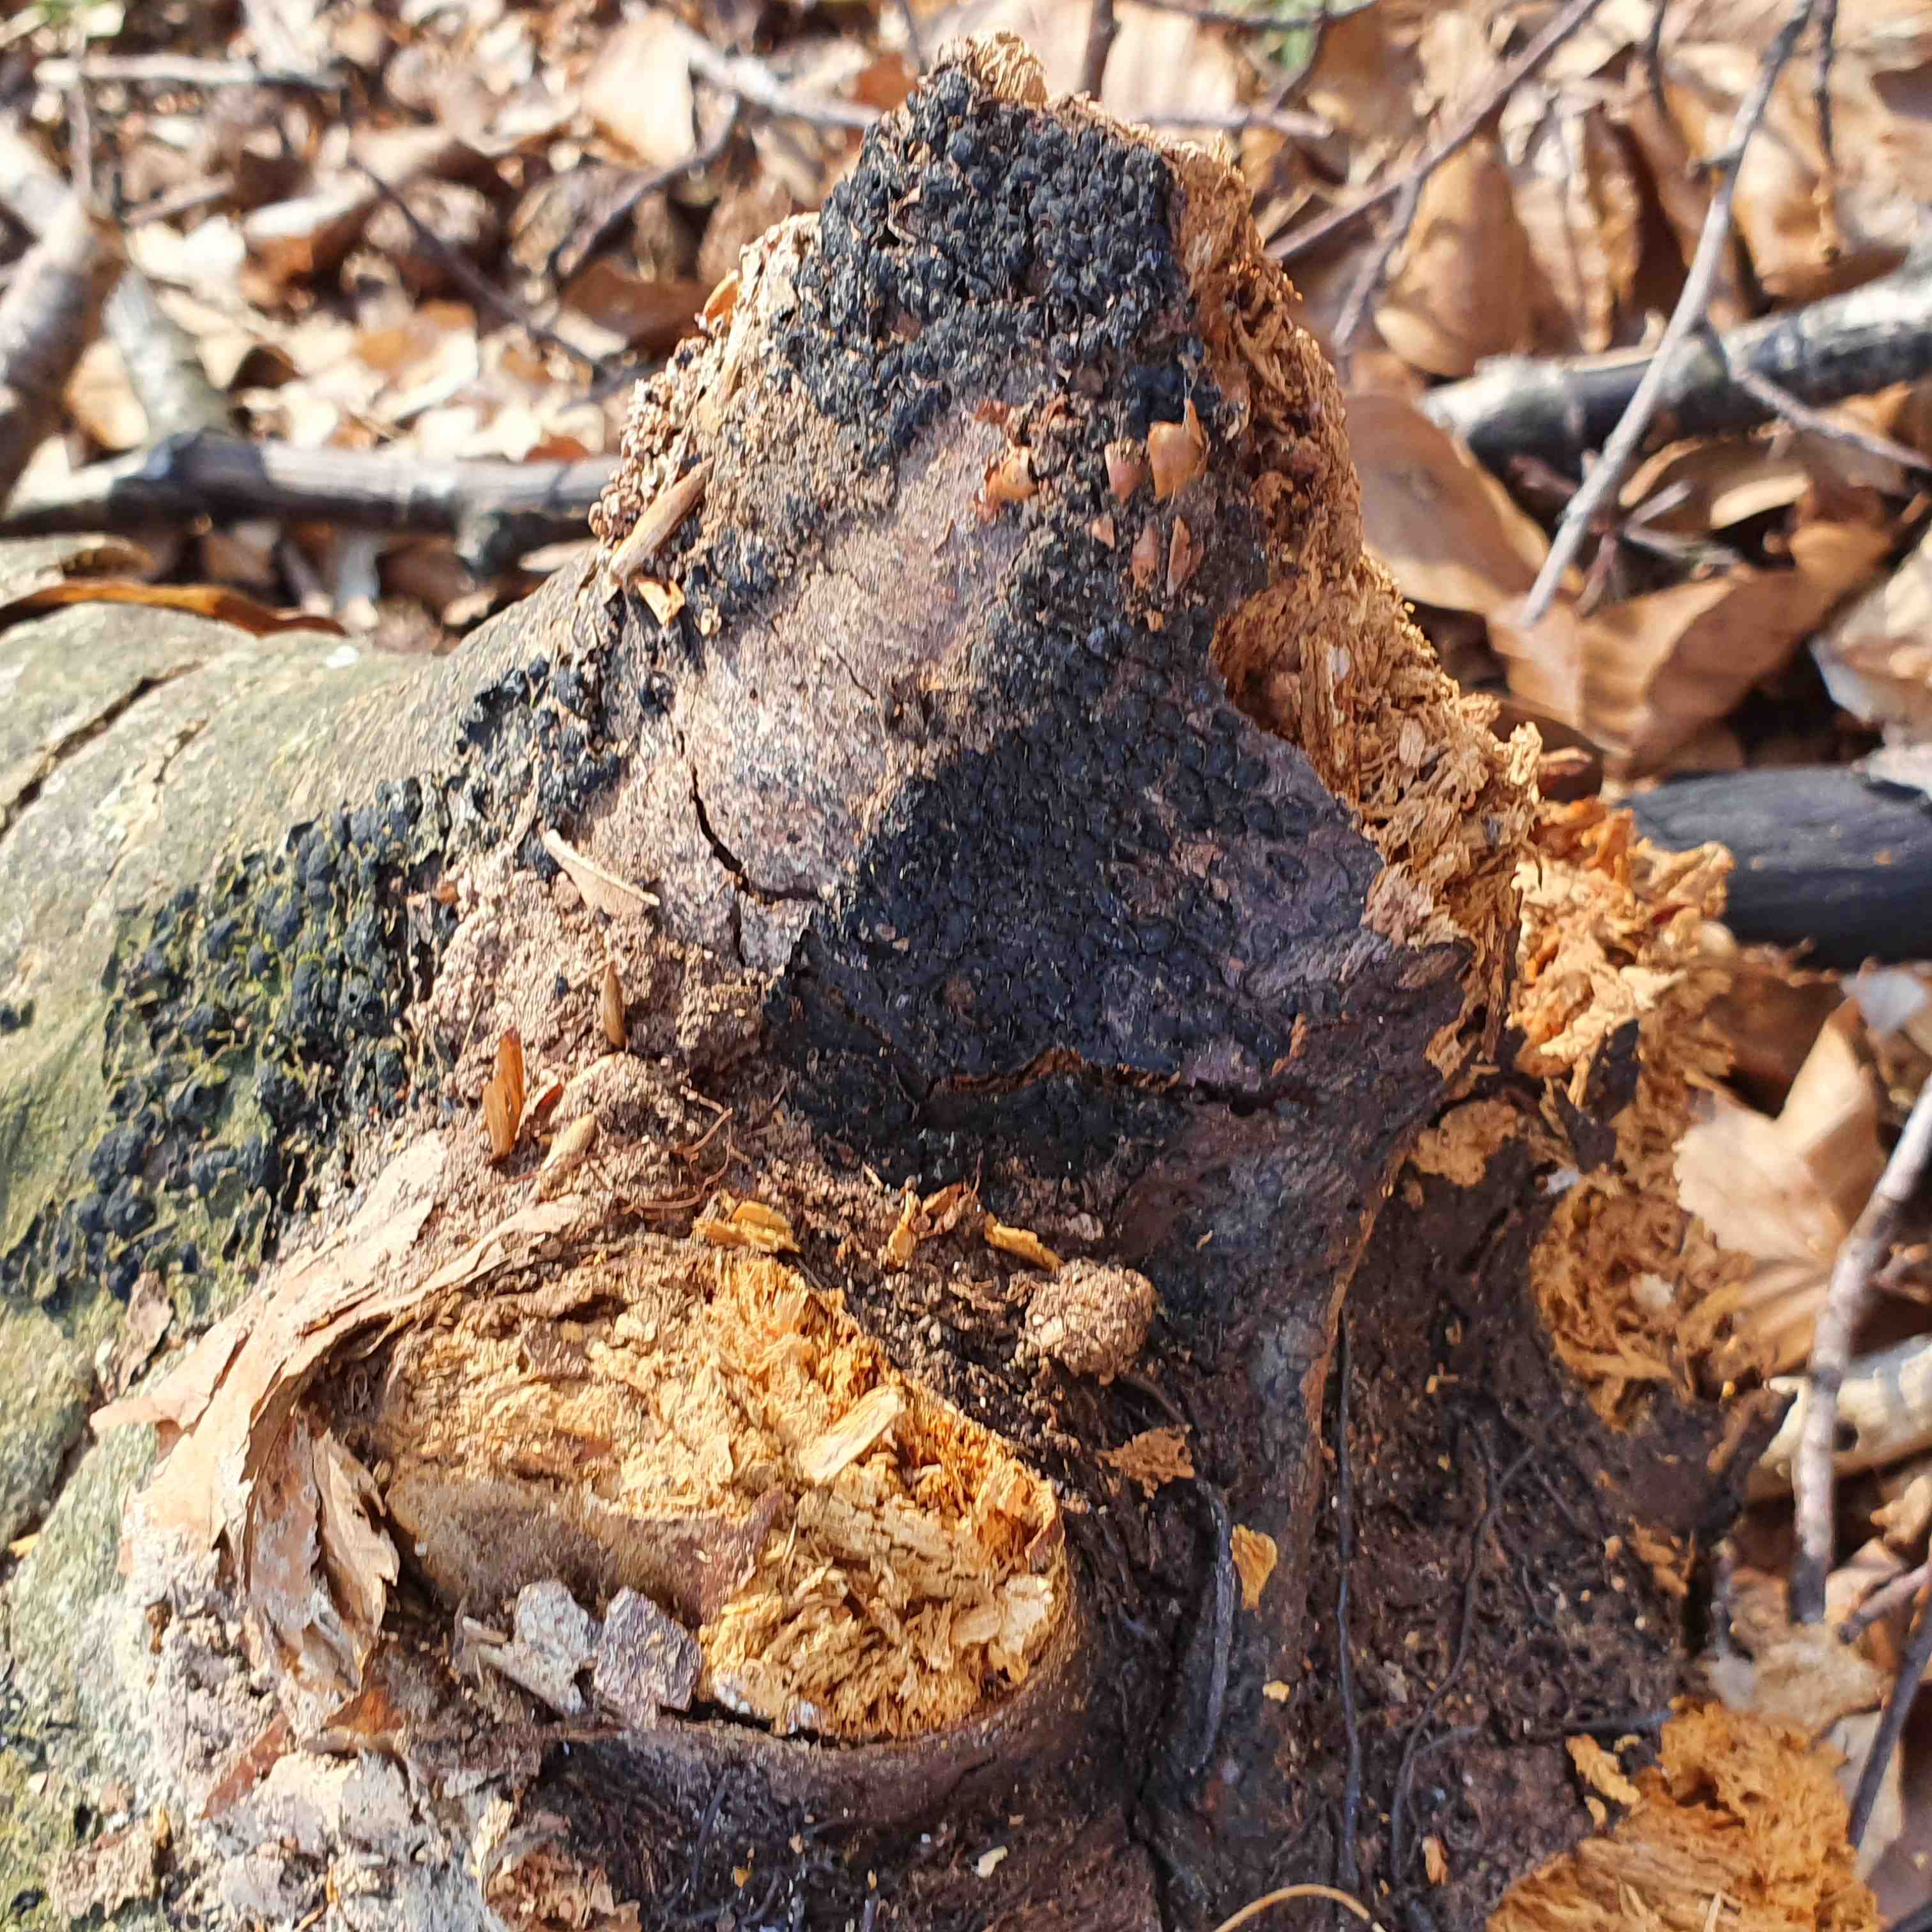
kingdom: Fungi
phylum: Ascomycota
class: Sordariomycetes
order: Xylariales
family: Melogrammataceae
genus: Melogramma
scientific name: Melogramma spiniferum
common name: bøgefod-kulhals
